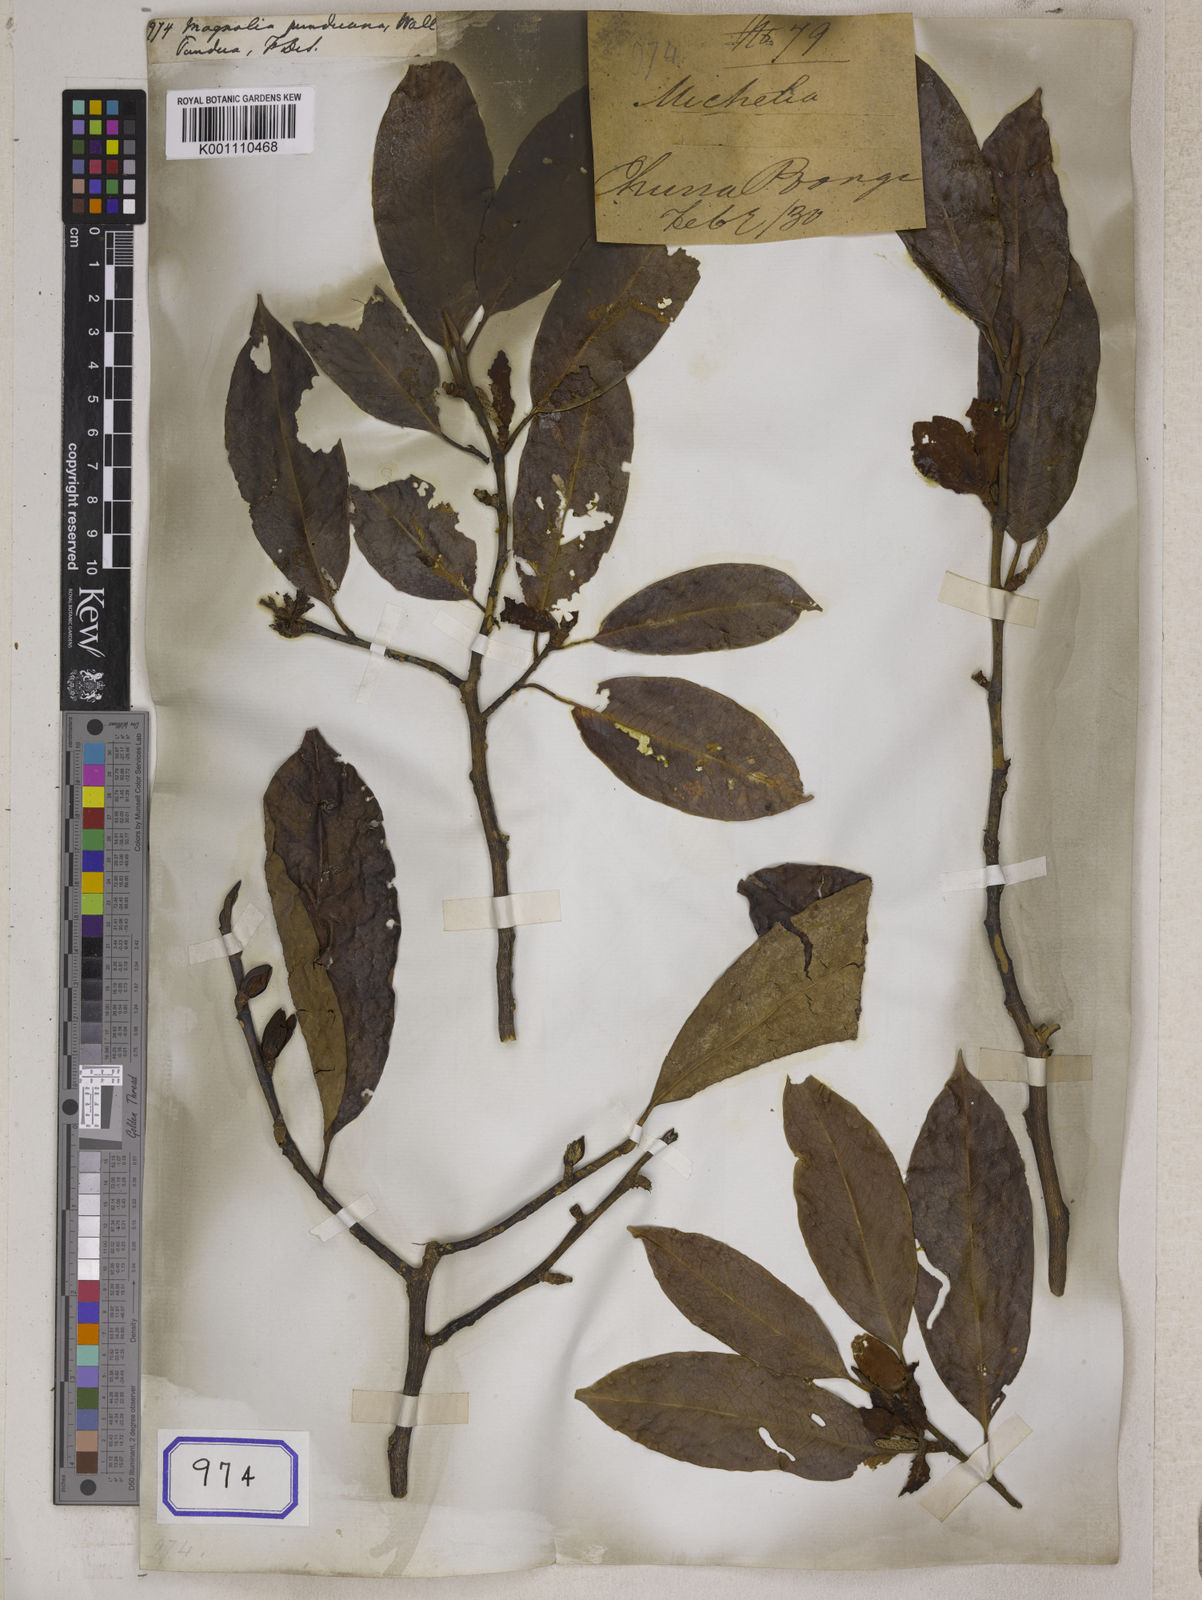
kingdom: Plantae
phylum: Tracheophyta
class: Magnoliopsida
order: Magnoliales
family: Magnoliaceae
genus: Magnolia
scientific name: Magnolia
